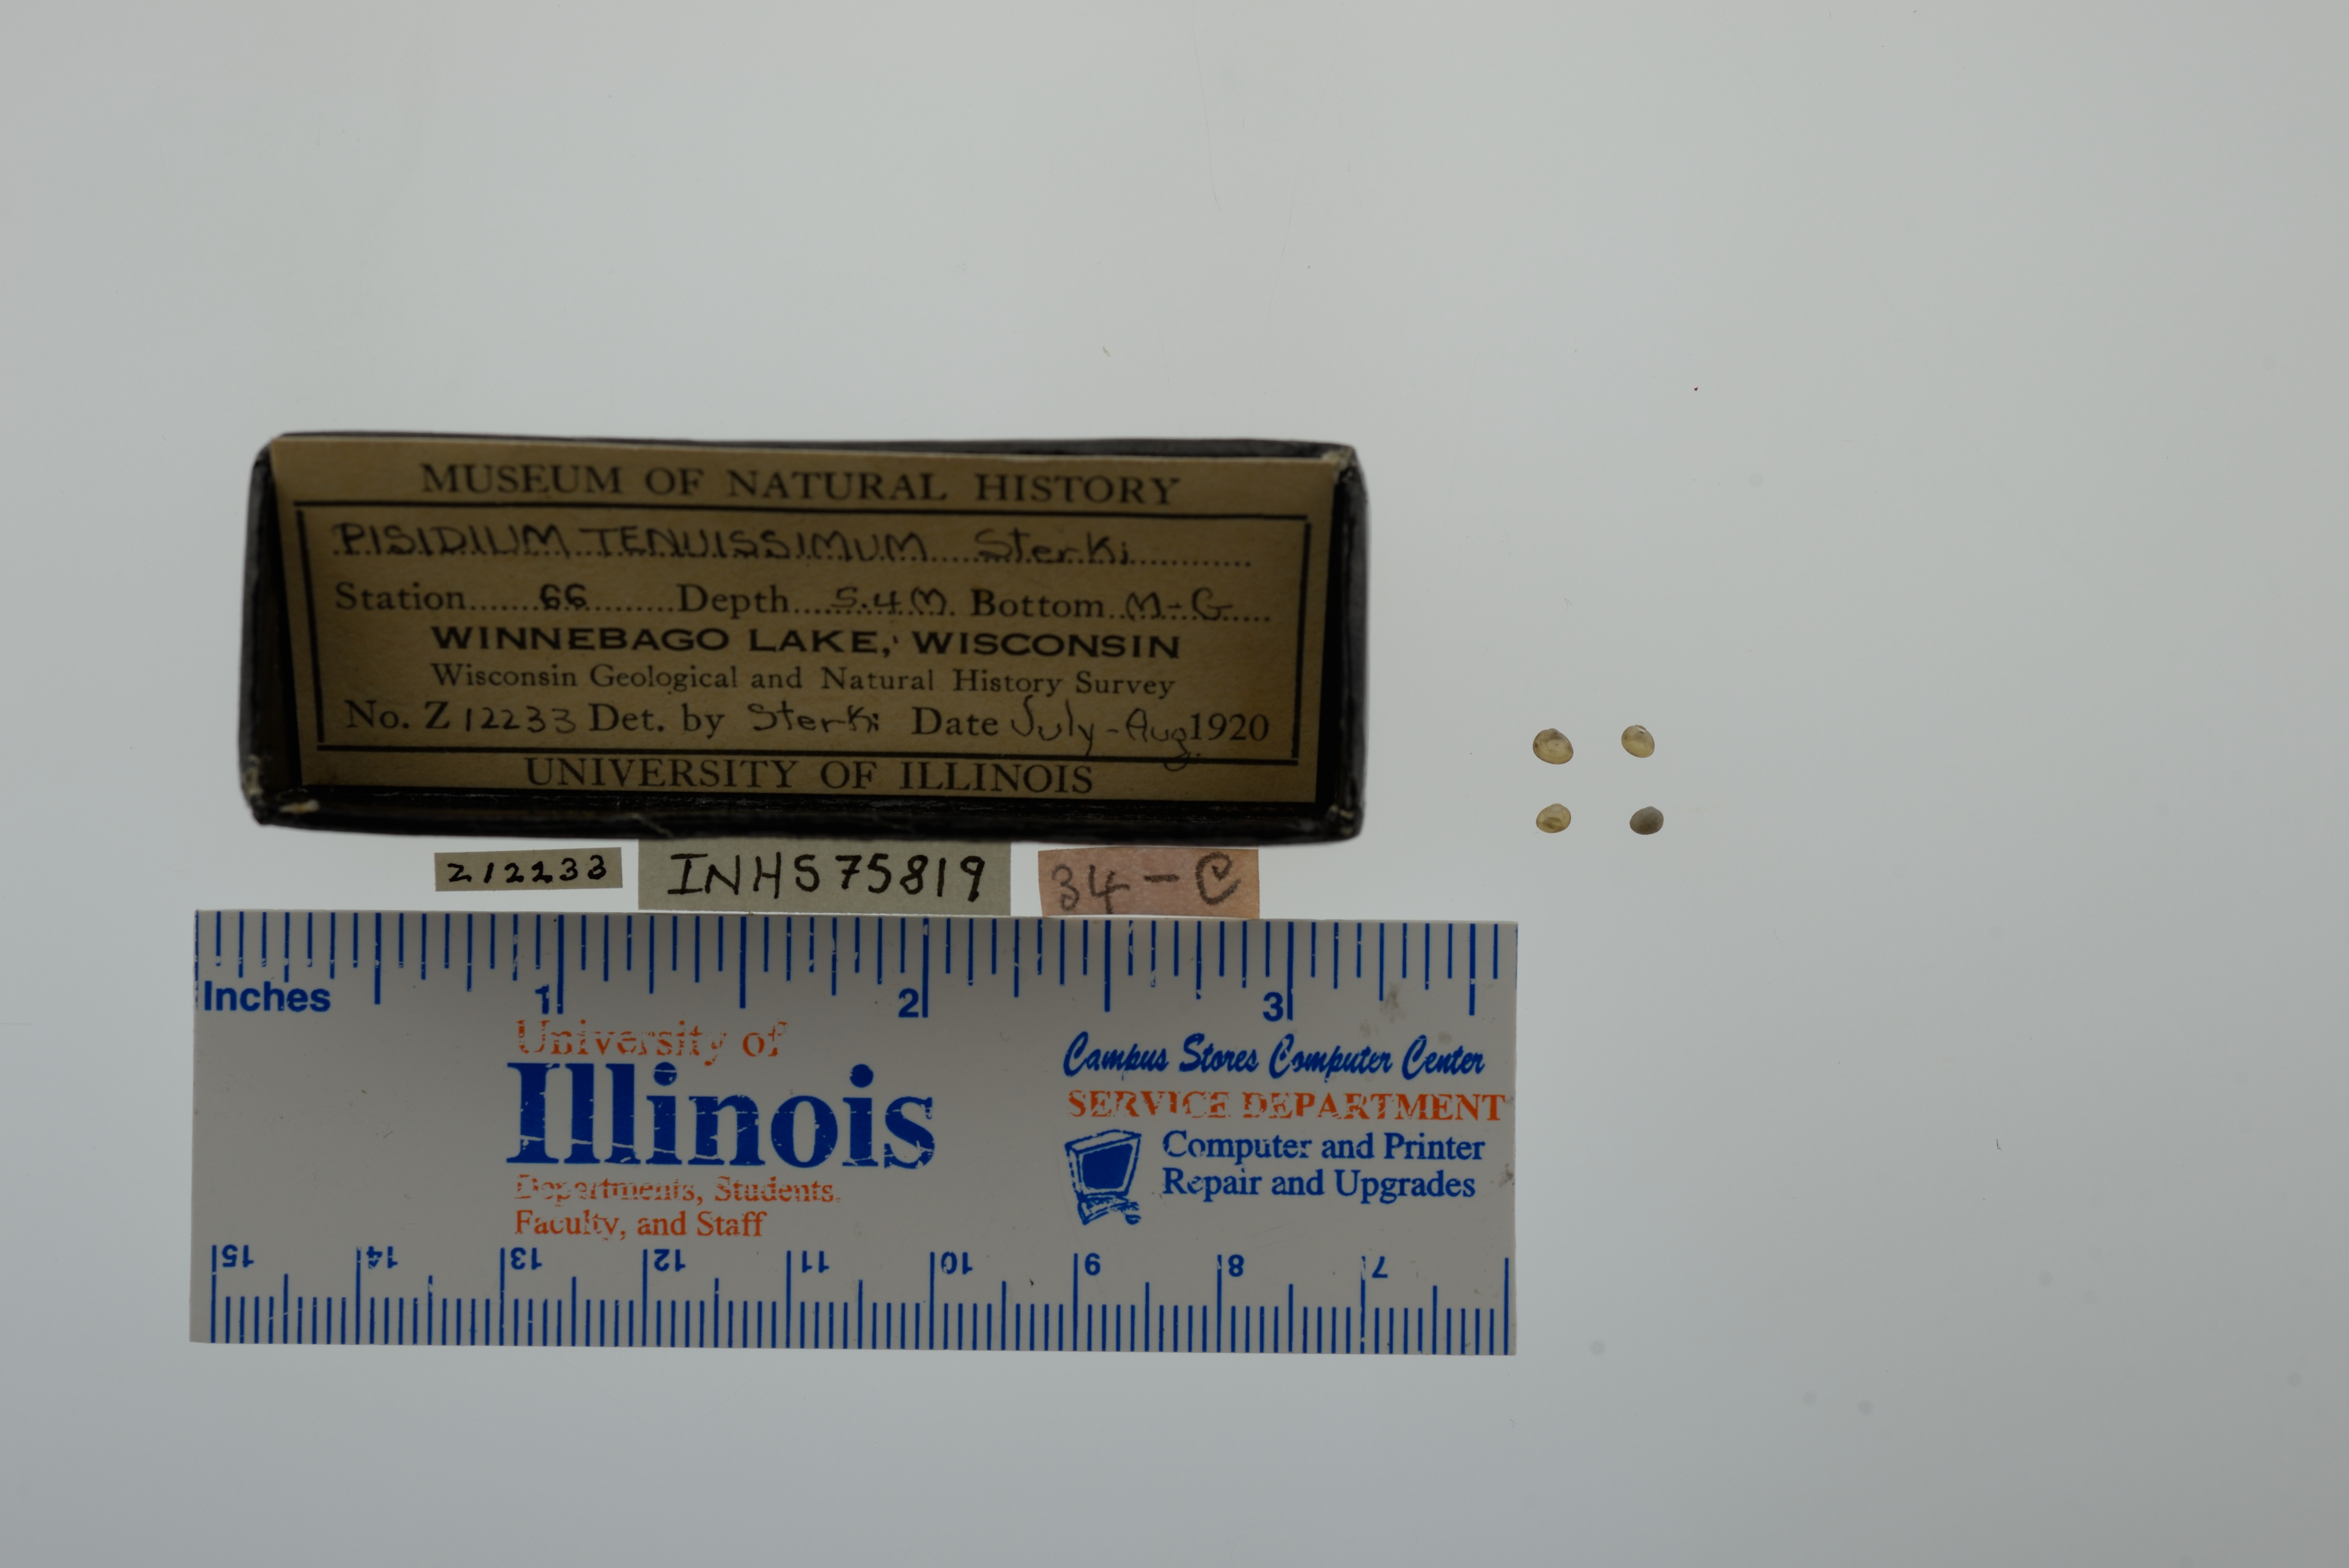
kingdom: Animalia
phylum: Mollusca
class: Bivalvia
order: Sphaeriida
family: Sphaeriidae
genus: Euglesa
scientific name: Euglesa nitida
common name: Shining peaclam
